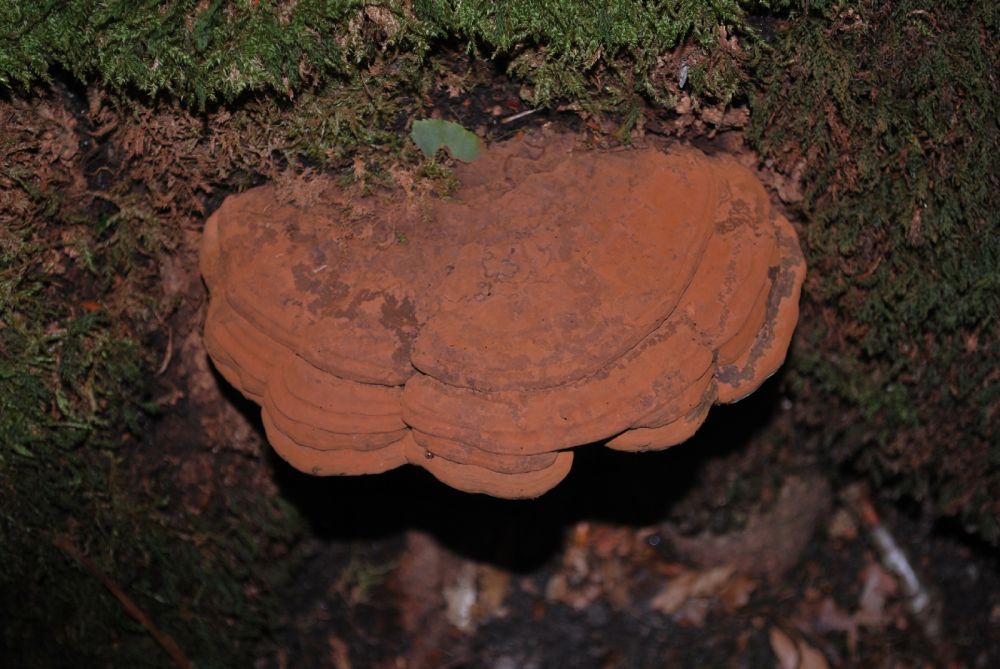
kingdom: Fungi
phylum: Basidiomycota
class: Agaricomycetes
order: Polyporales
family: Polyporaceae
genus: Ganoderma
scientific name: Ganoderma applanatum
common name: flad lakporesvamp
